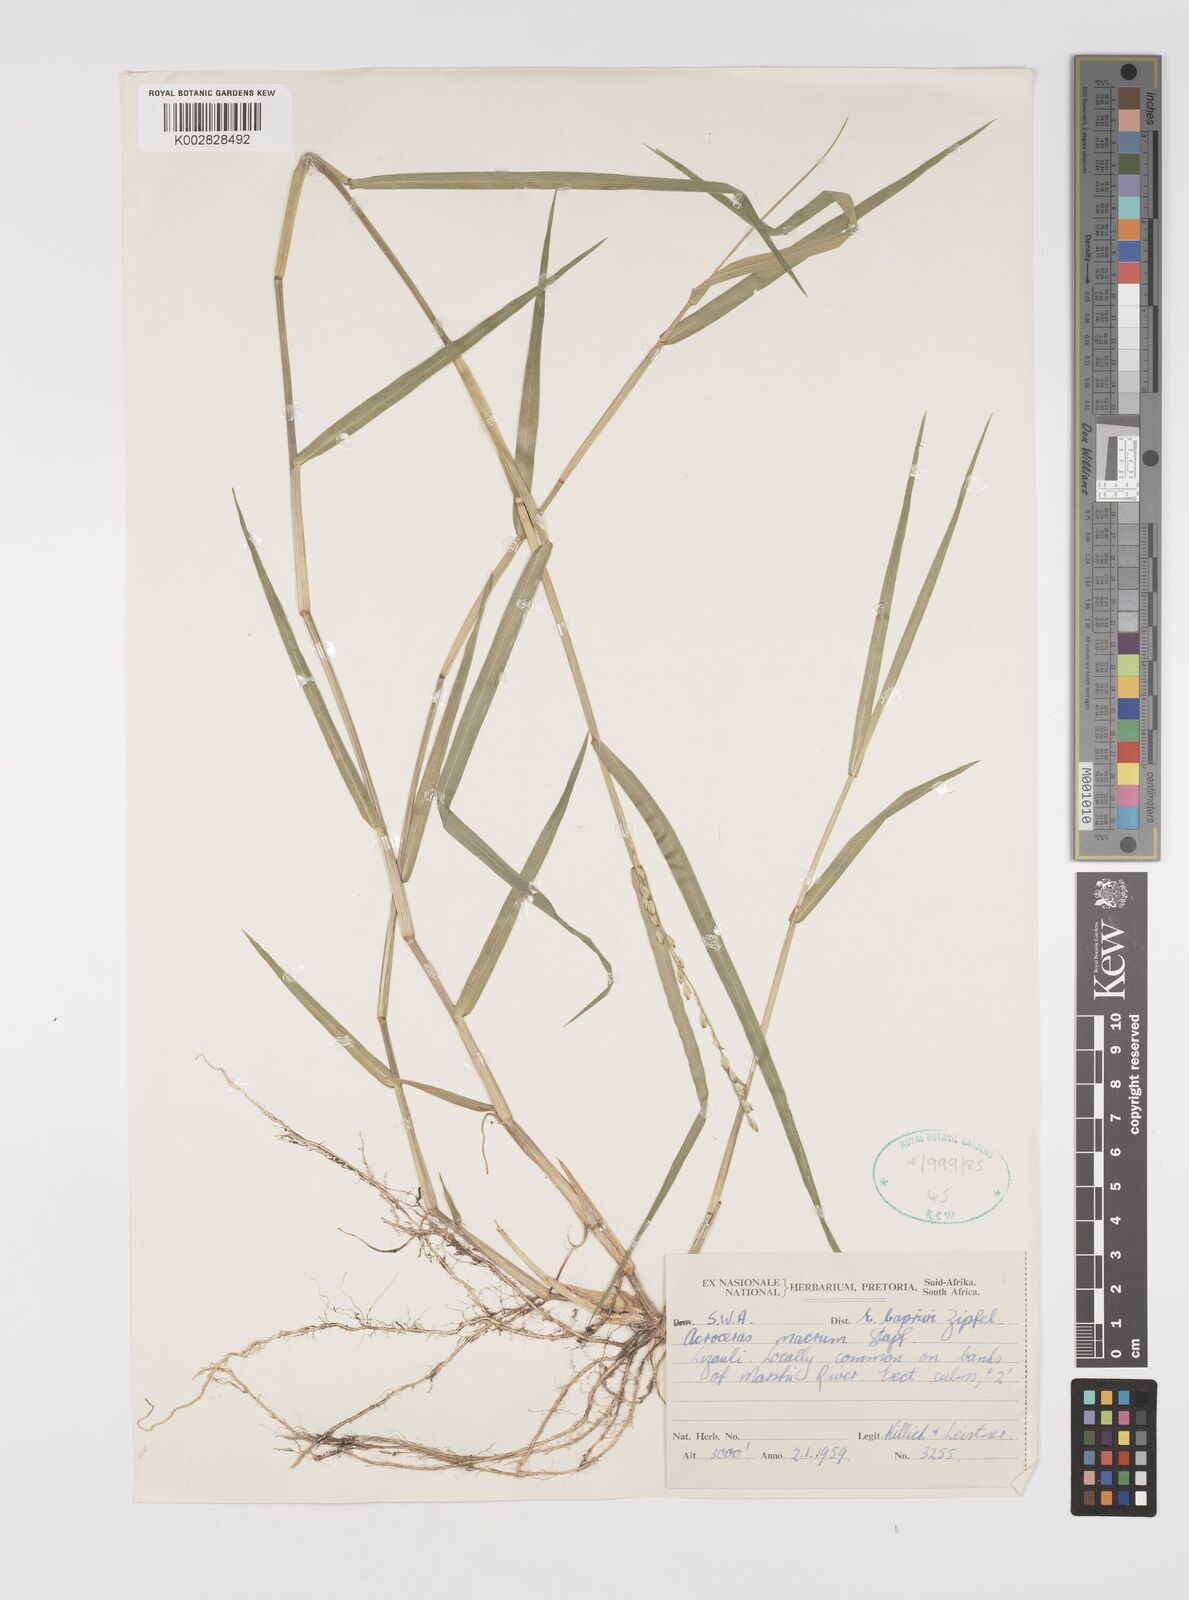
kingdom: Plantae
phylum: Tracheophyta
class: Liliopsida
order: Poales
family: Poaceae
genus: Acroceras
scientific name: Acroceras macrum
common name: Nyl grass
